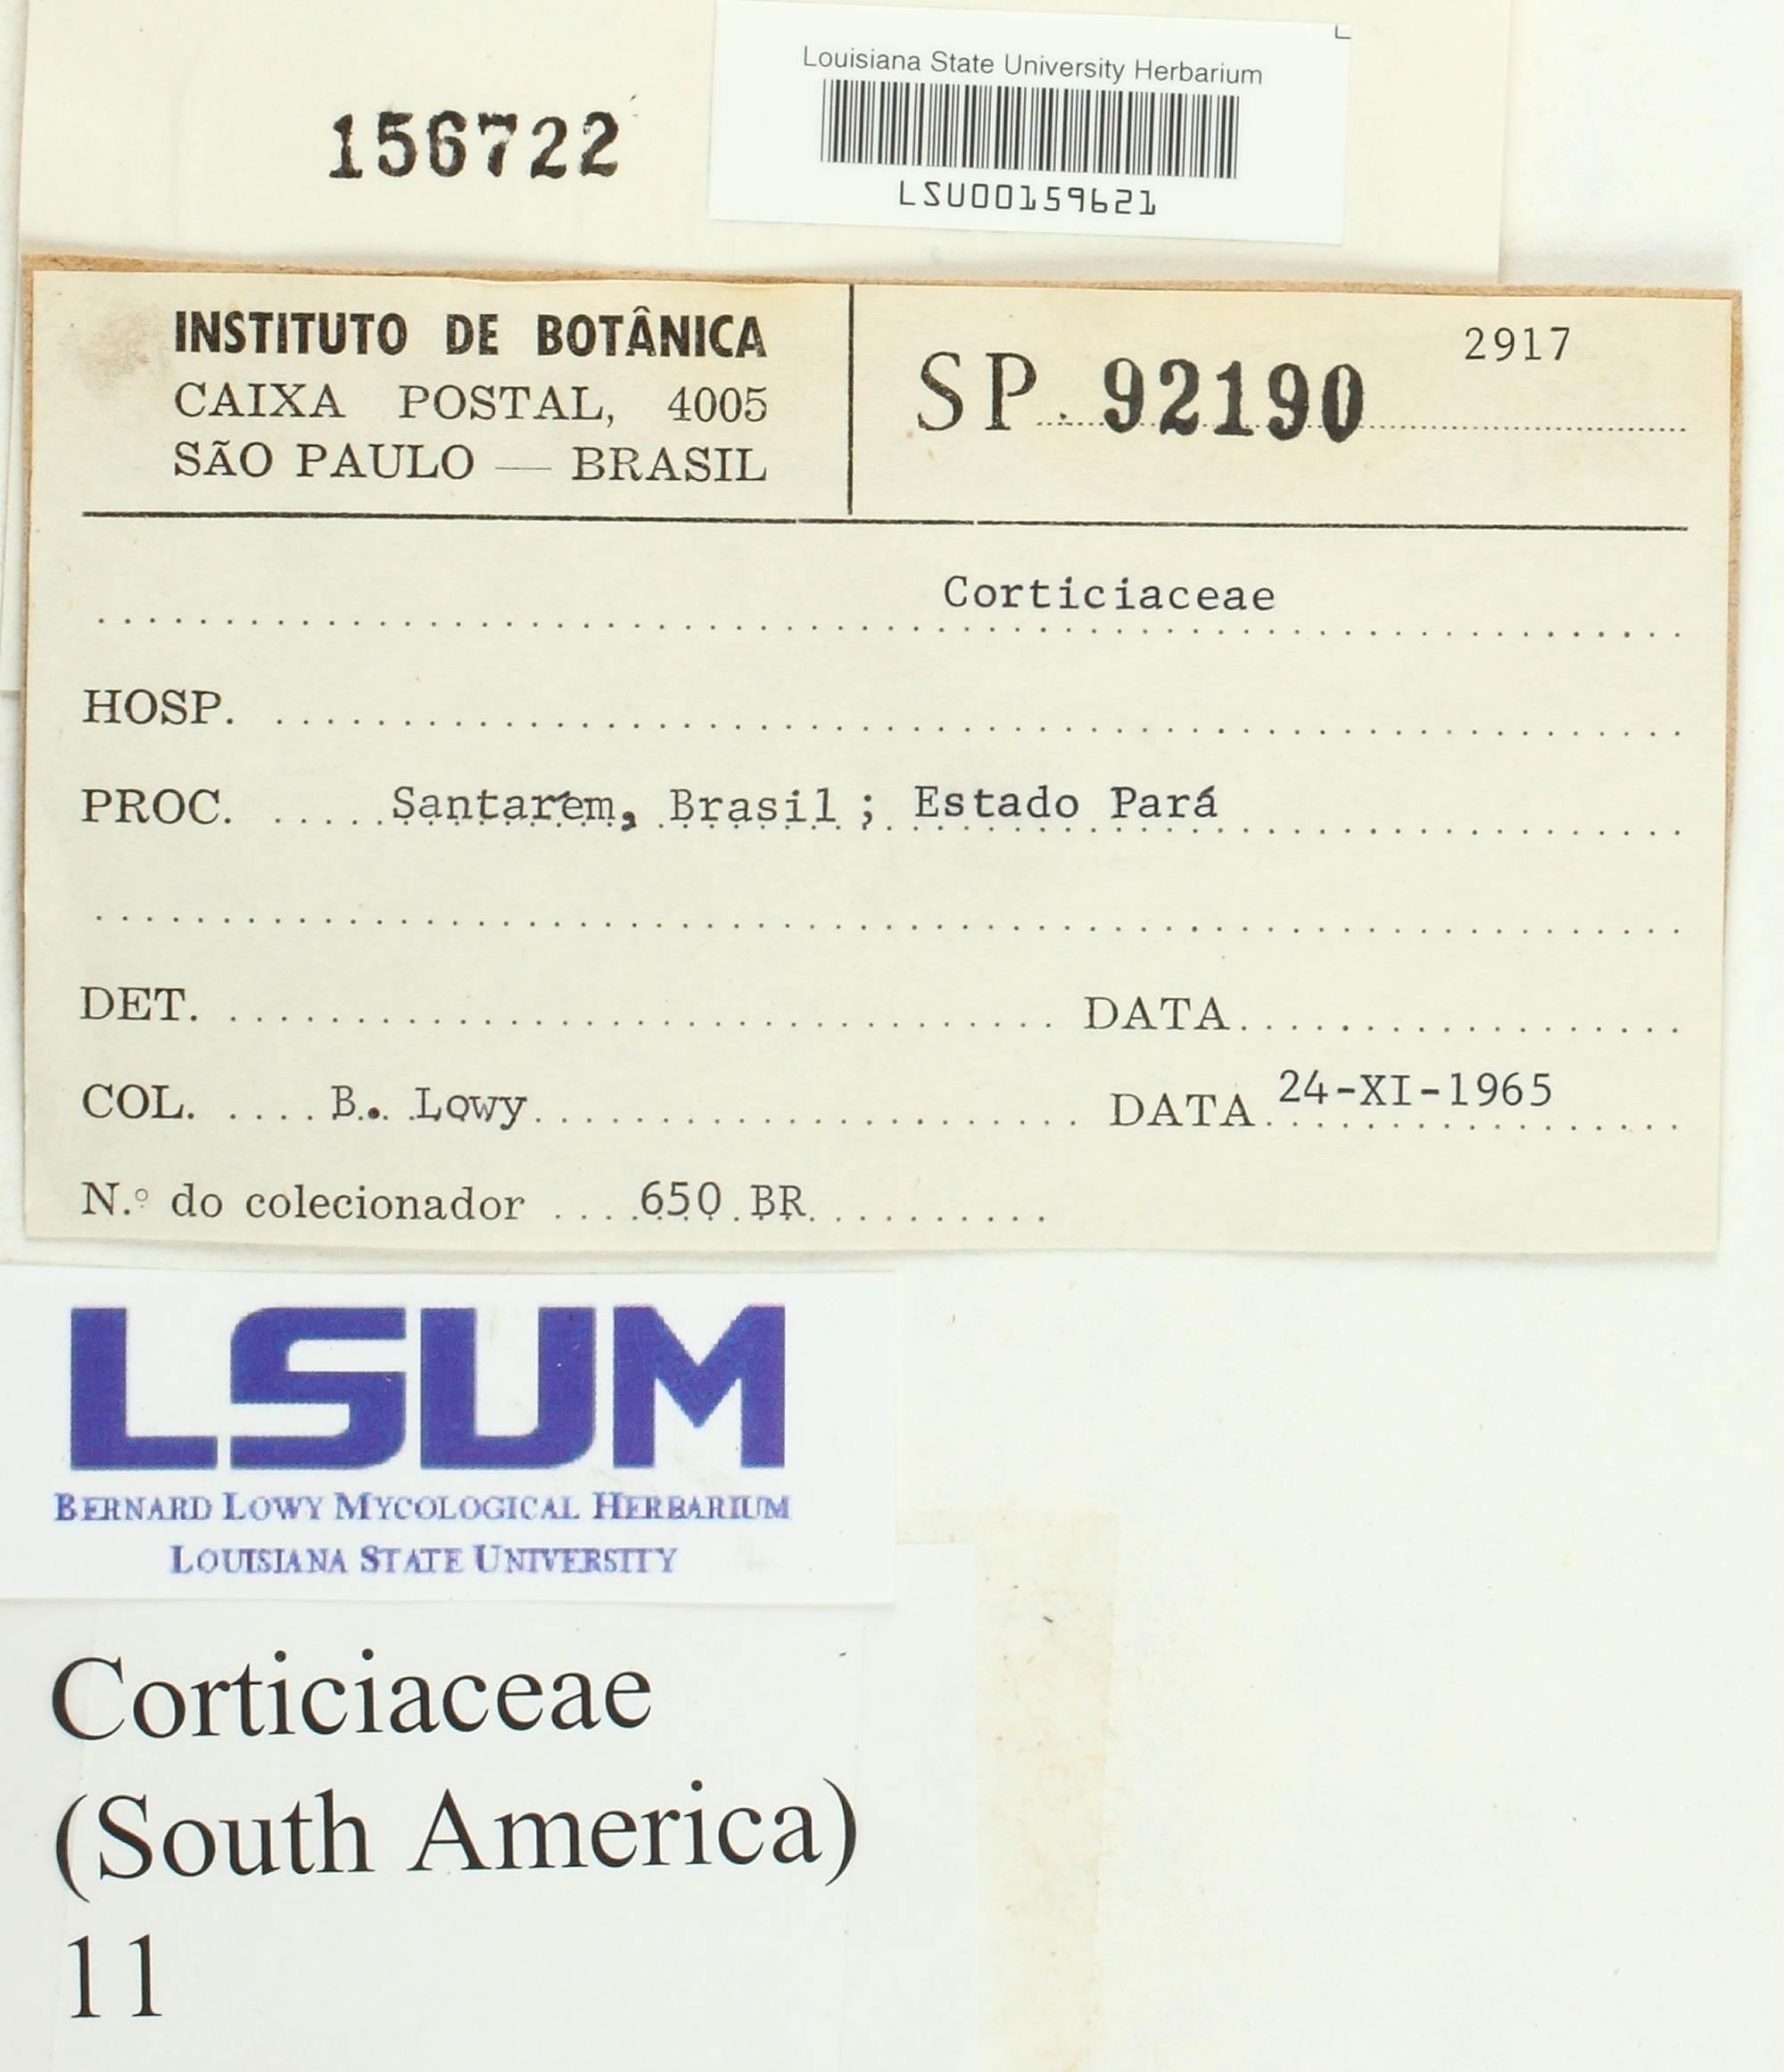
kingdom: Fungi
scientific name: Fungi
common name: Fungi
